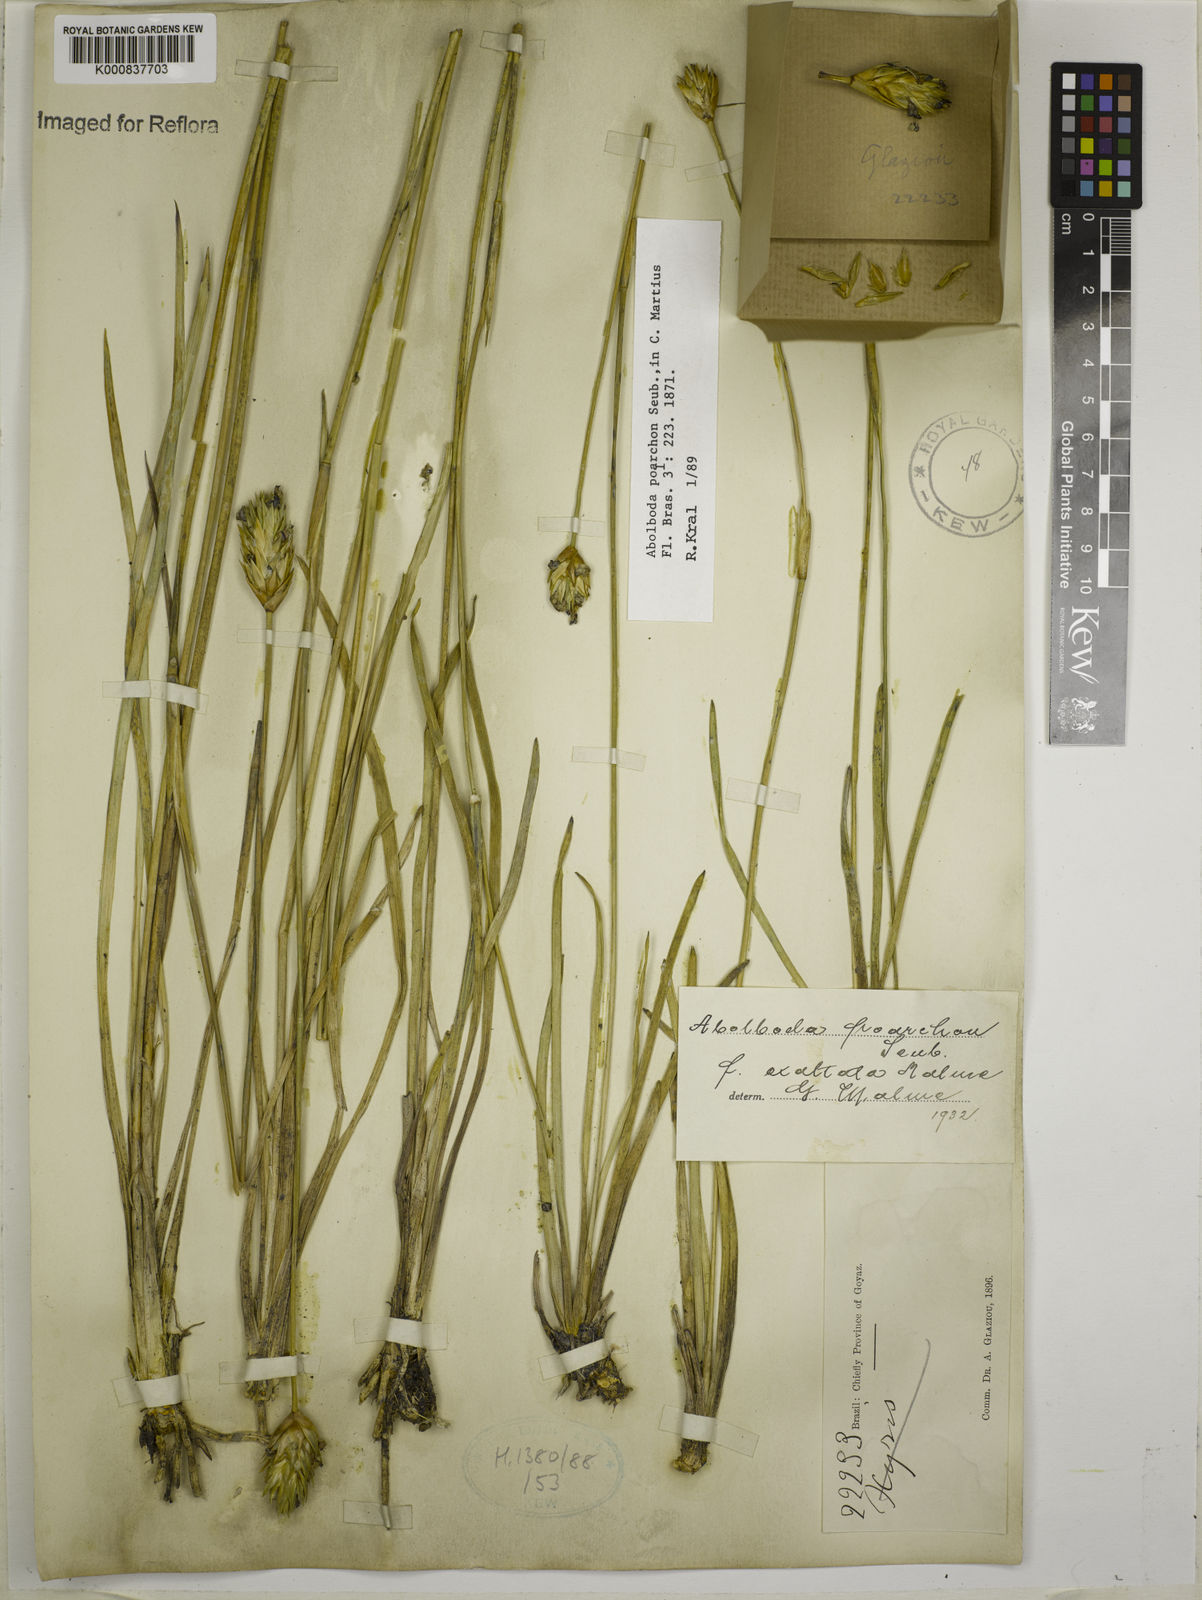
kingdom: Plantae
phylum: Tracheophyta
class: Liliopsida
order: Poales
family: Xyridaceae
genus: Abolboda
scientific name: Abolboda poarchon
